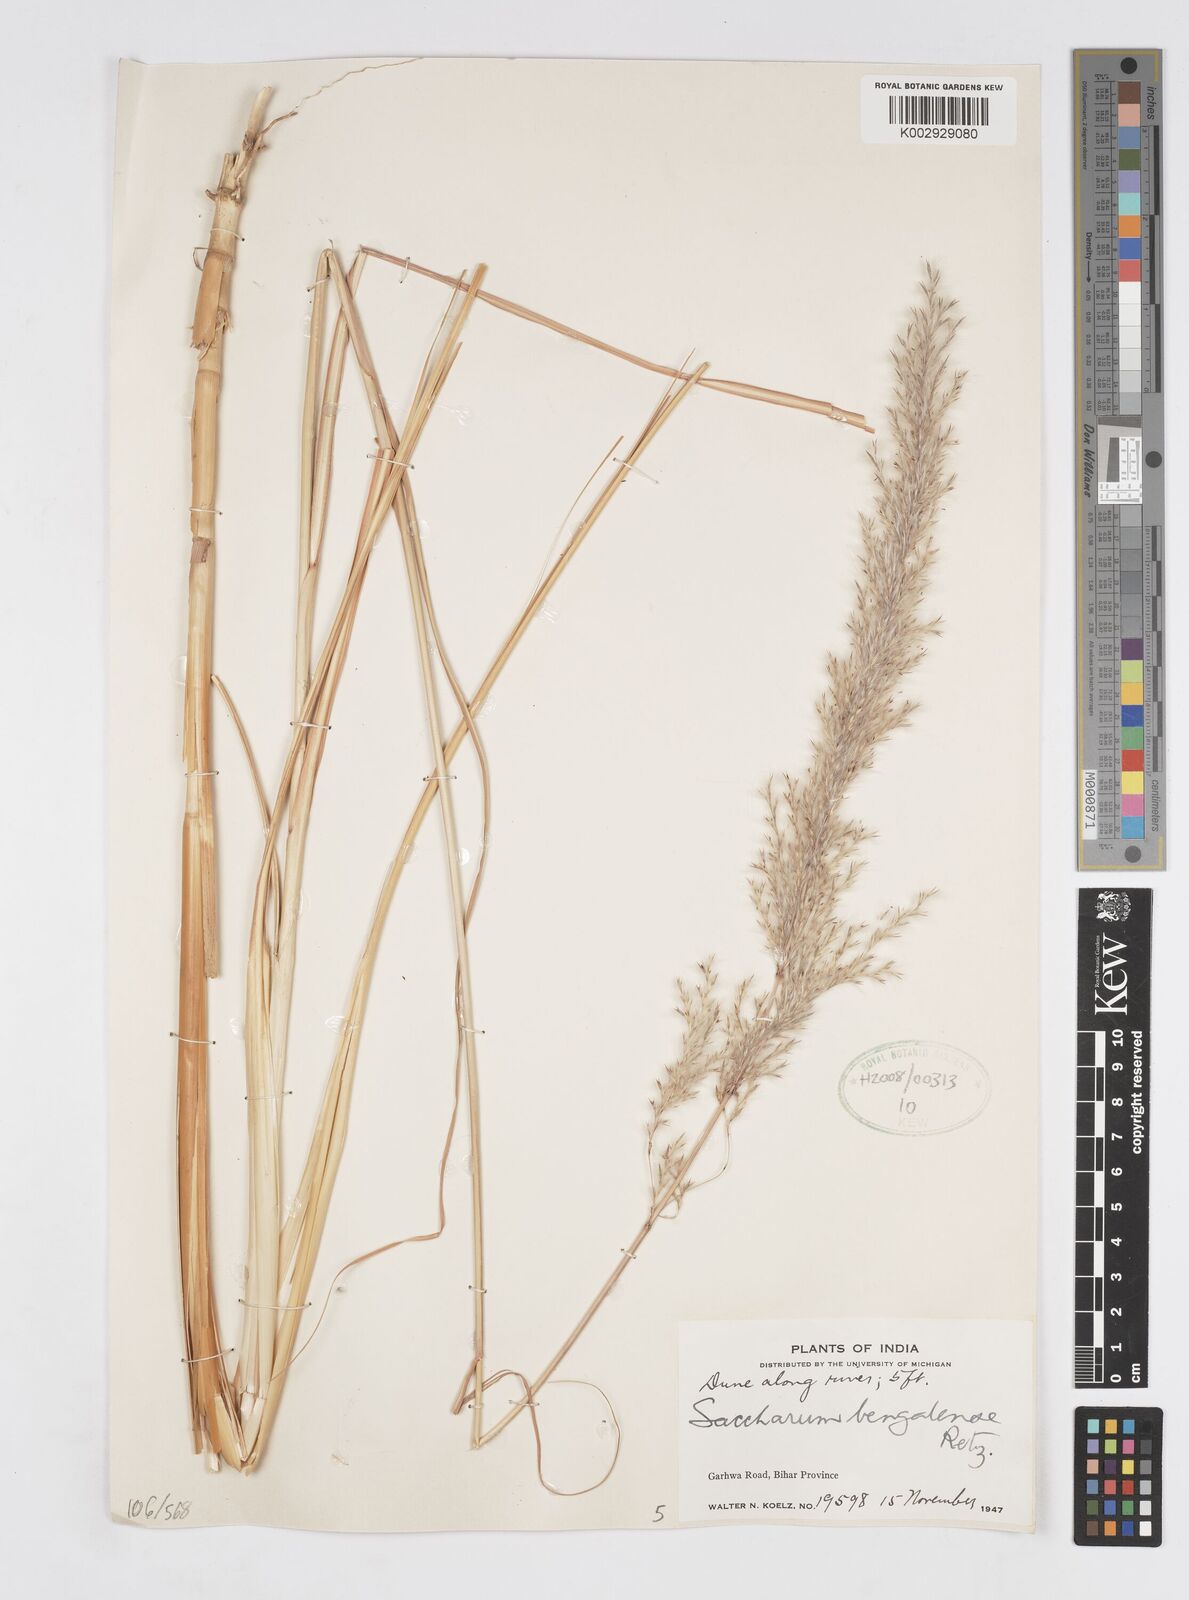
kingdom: Plantae
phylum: Tracheophyta
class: Liliopsida
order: Poales
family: Poaceae
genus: Tripidium
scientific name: Tripidium bengalense
